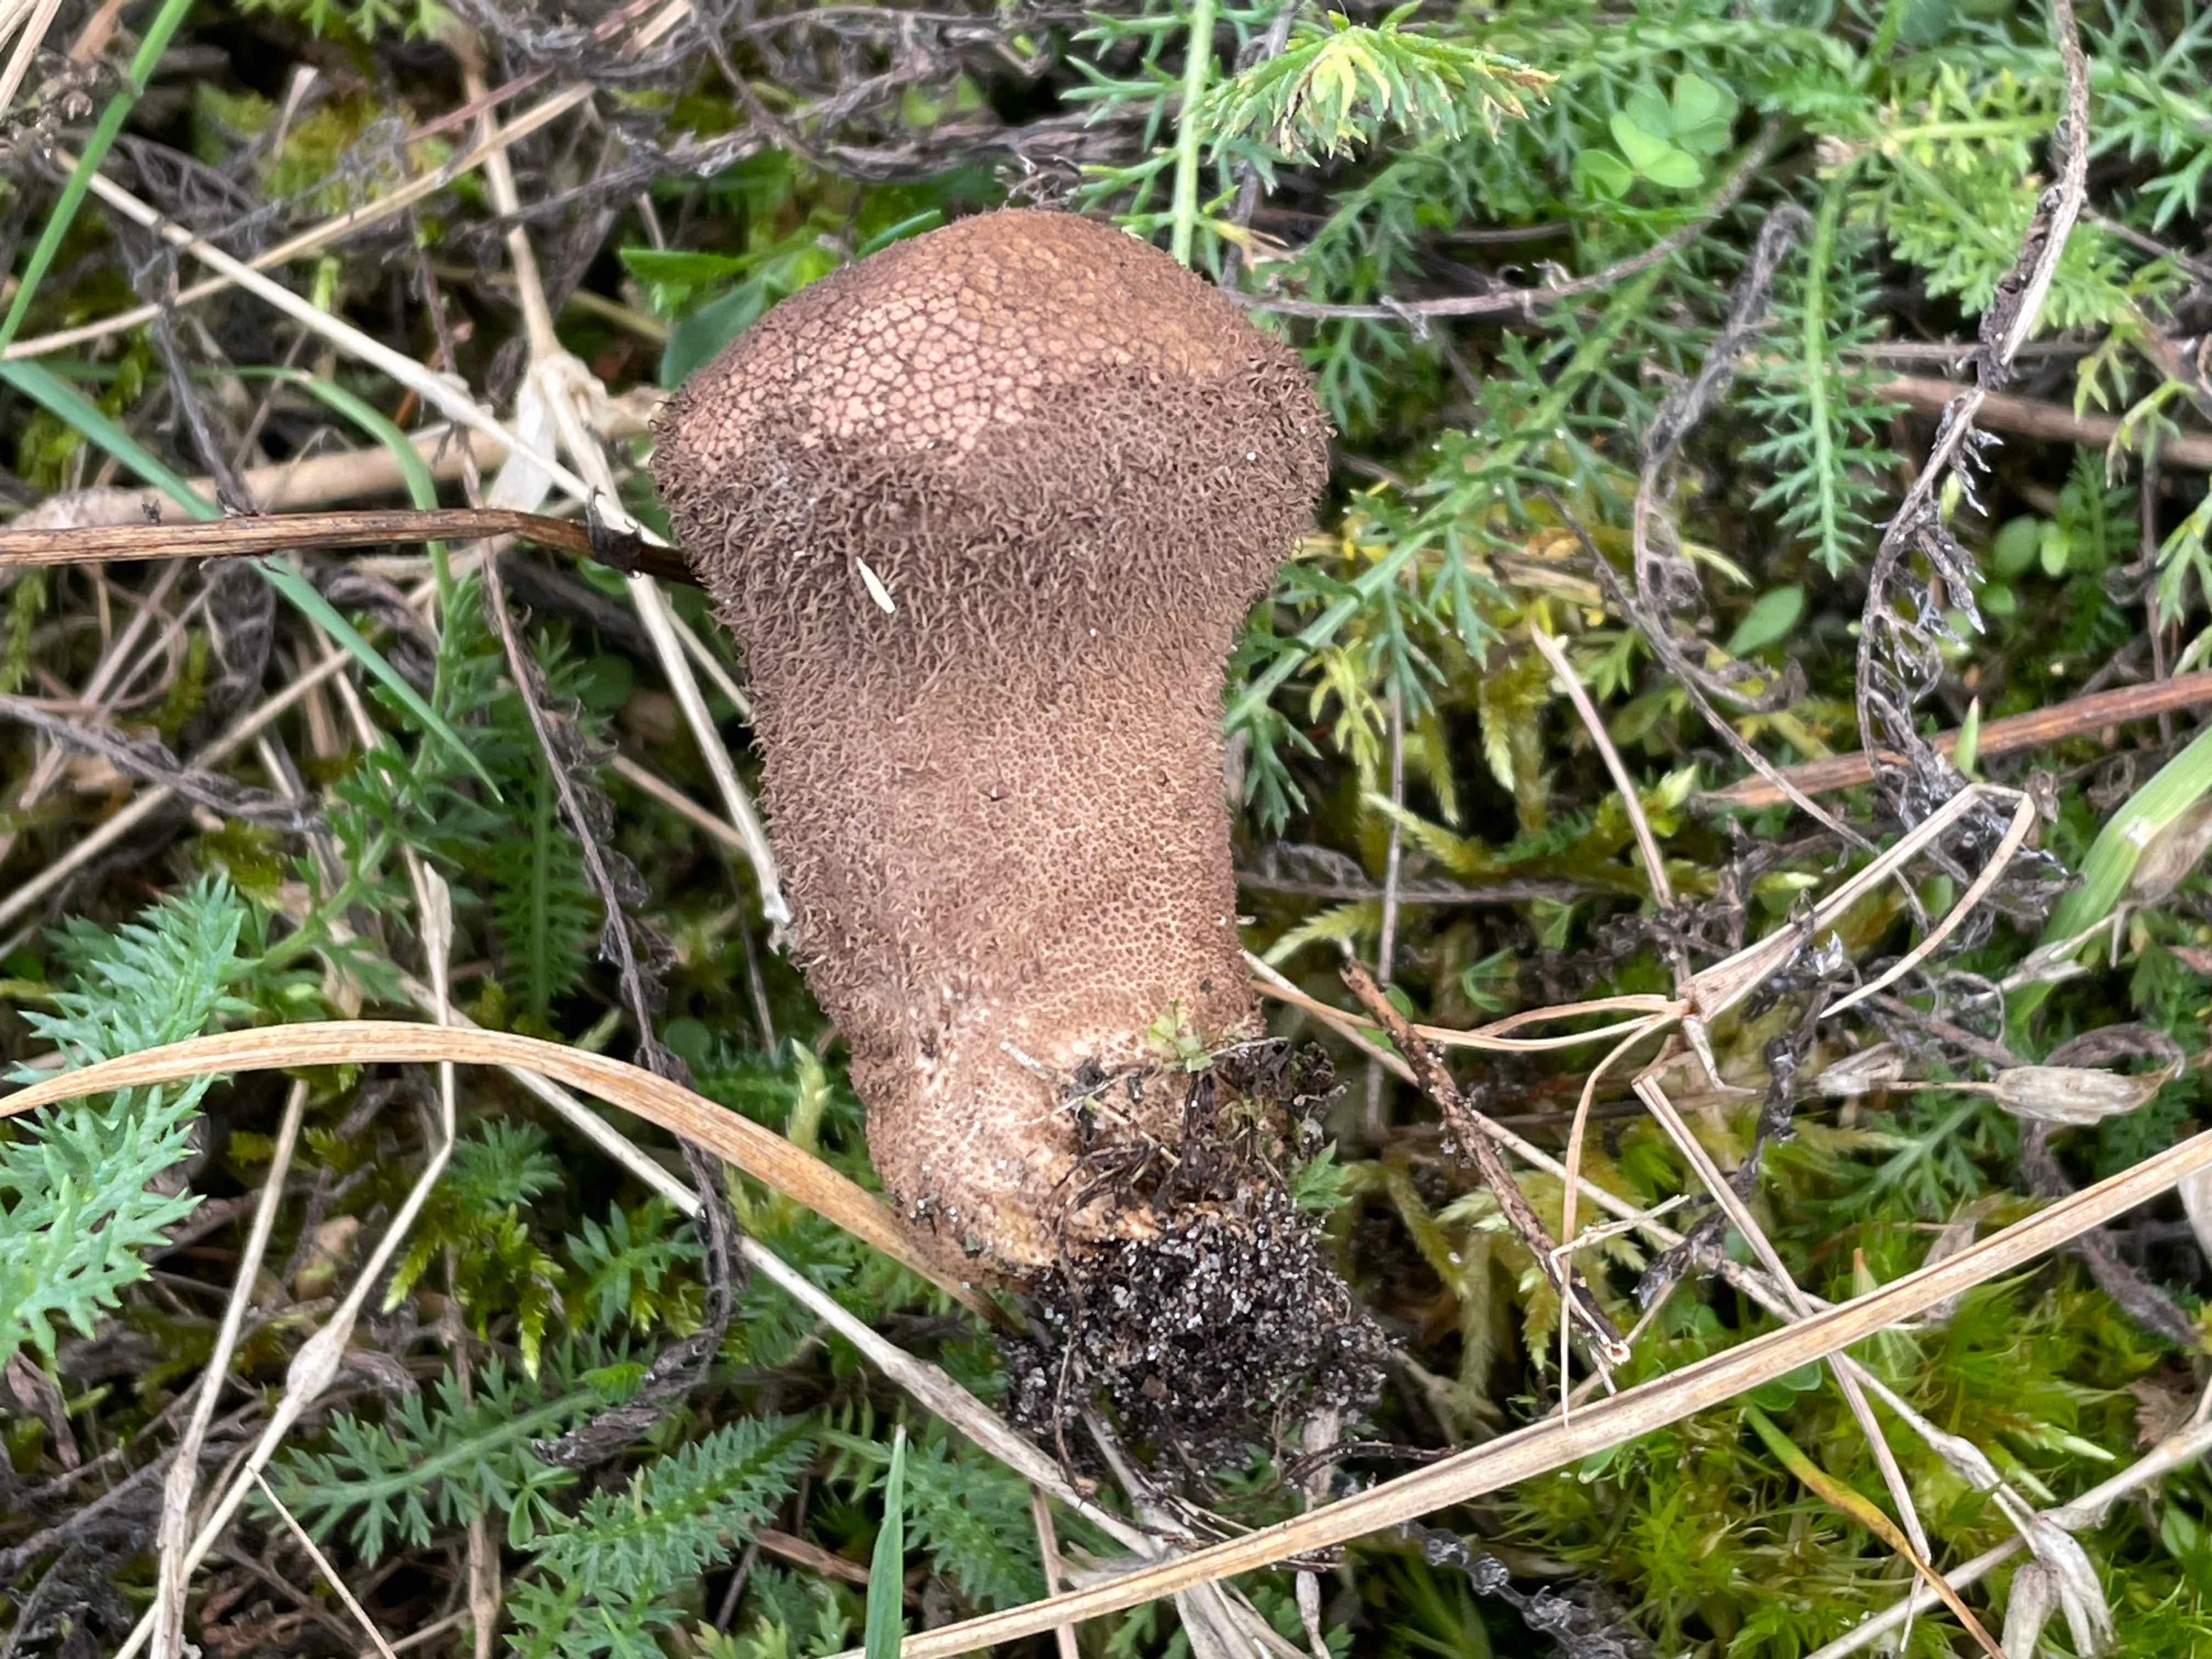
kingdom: Fungi
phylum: Basidiomycota
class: Agaricomycetes
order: Agaricales
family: Lycoperdaceae
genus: Lycoperdon
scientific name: Lycoperdon nigrescens
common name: sortagtig støvbold
